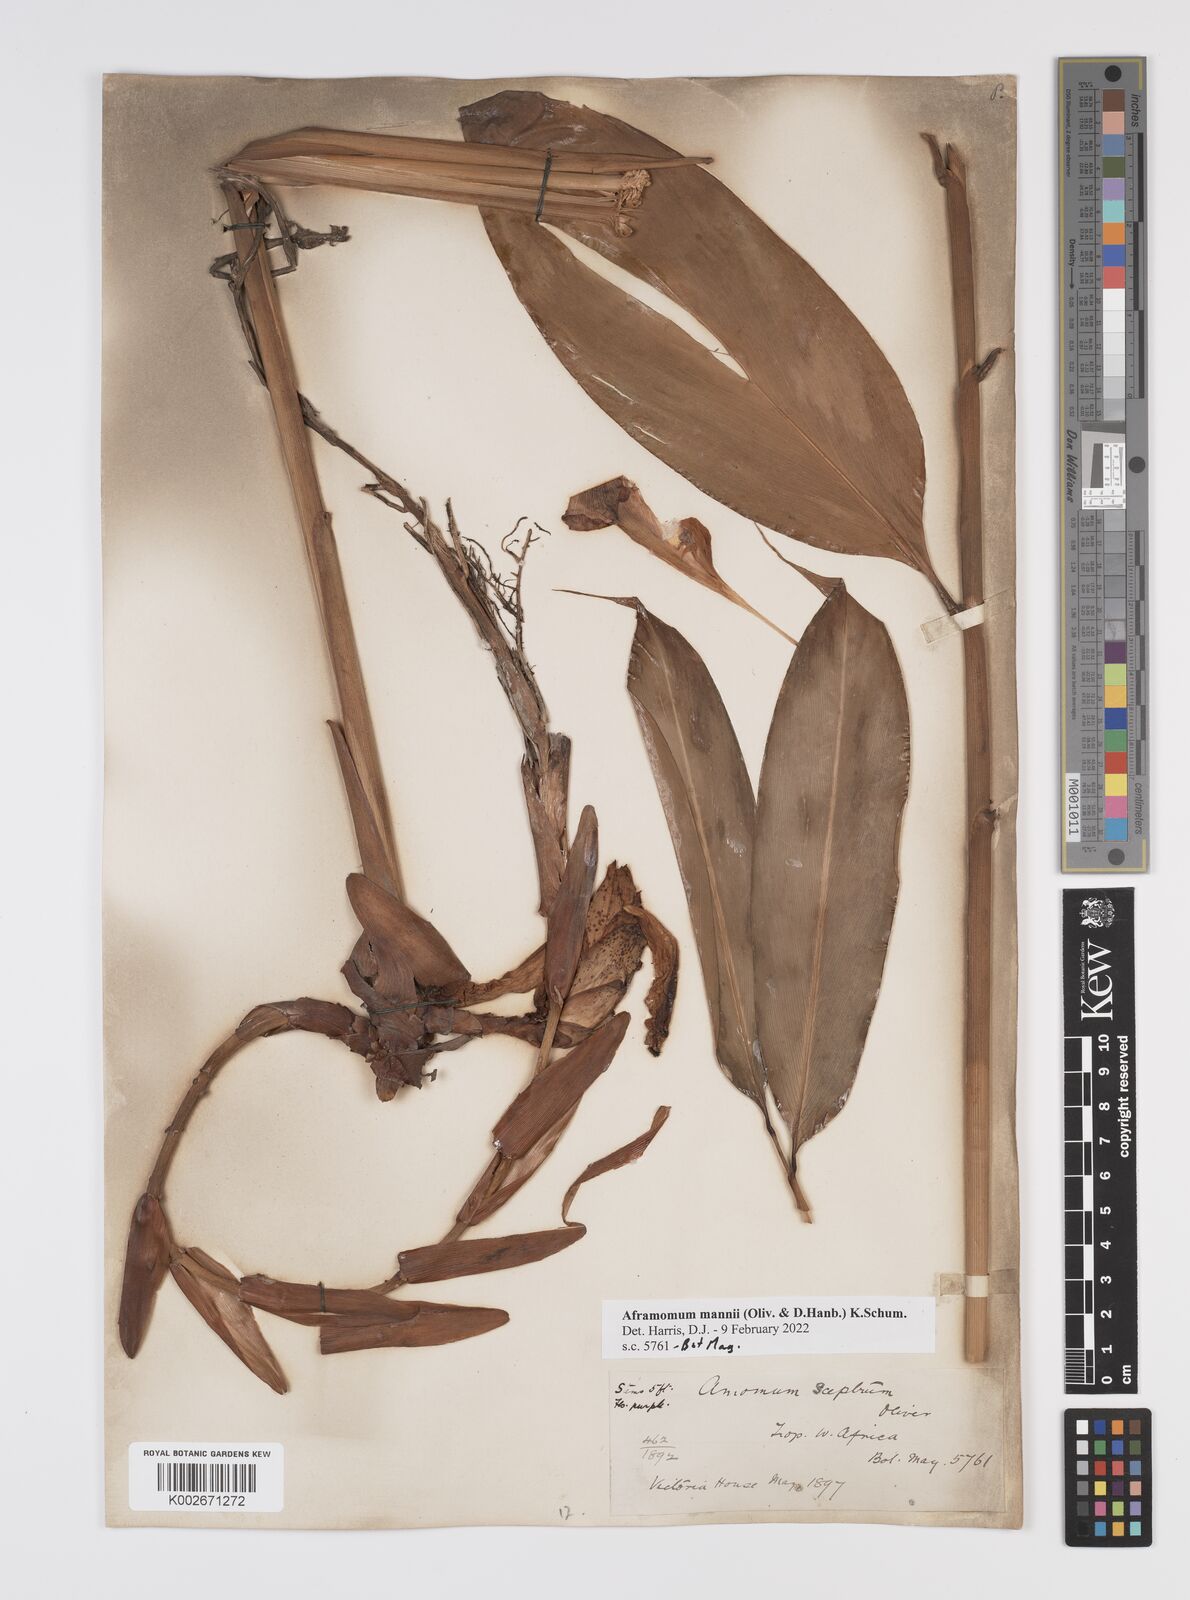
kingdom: Plantae
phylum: Tracheophyta
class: Liliopsida
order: Zingiberales
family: Zingiberaceae
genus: Aframomum
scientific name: Aframomum mannii
